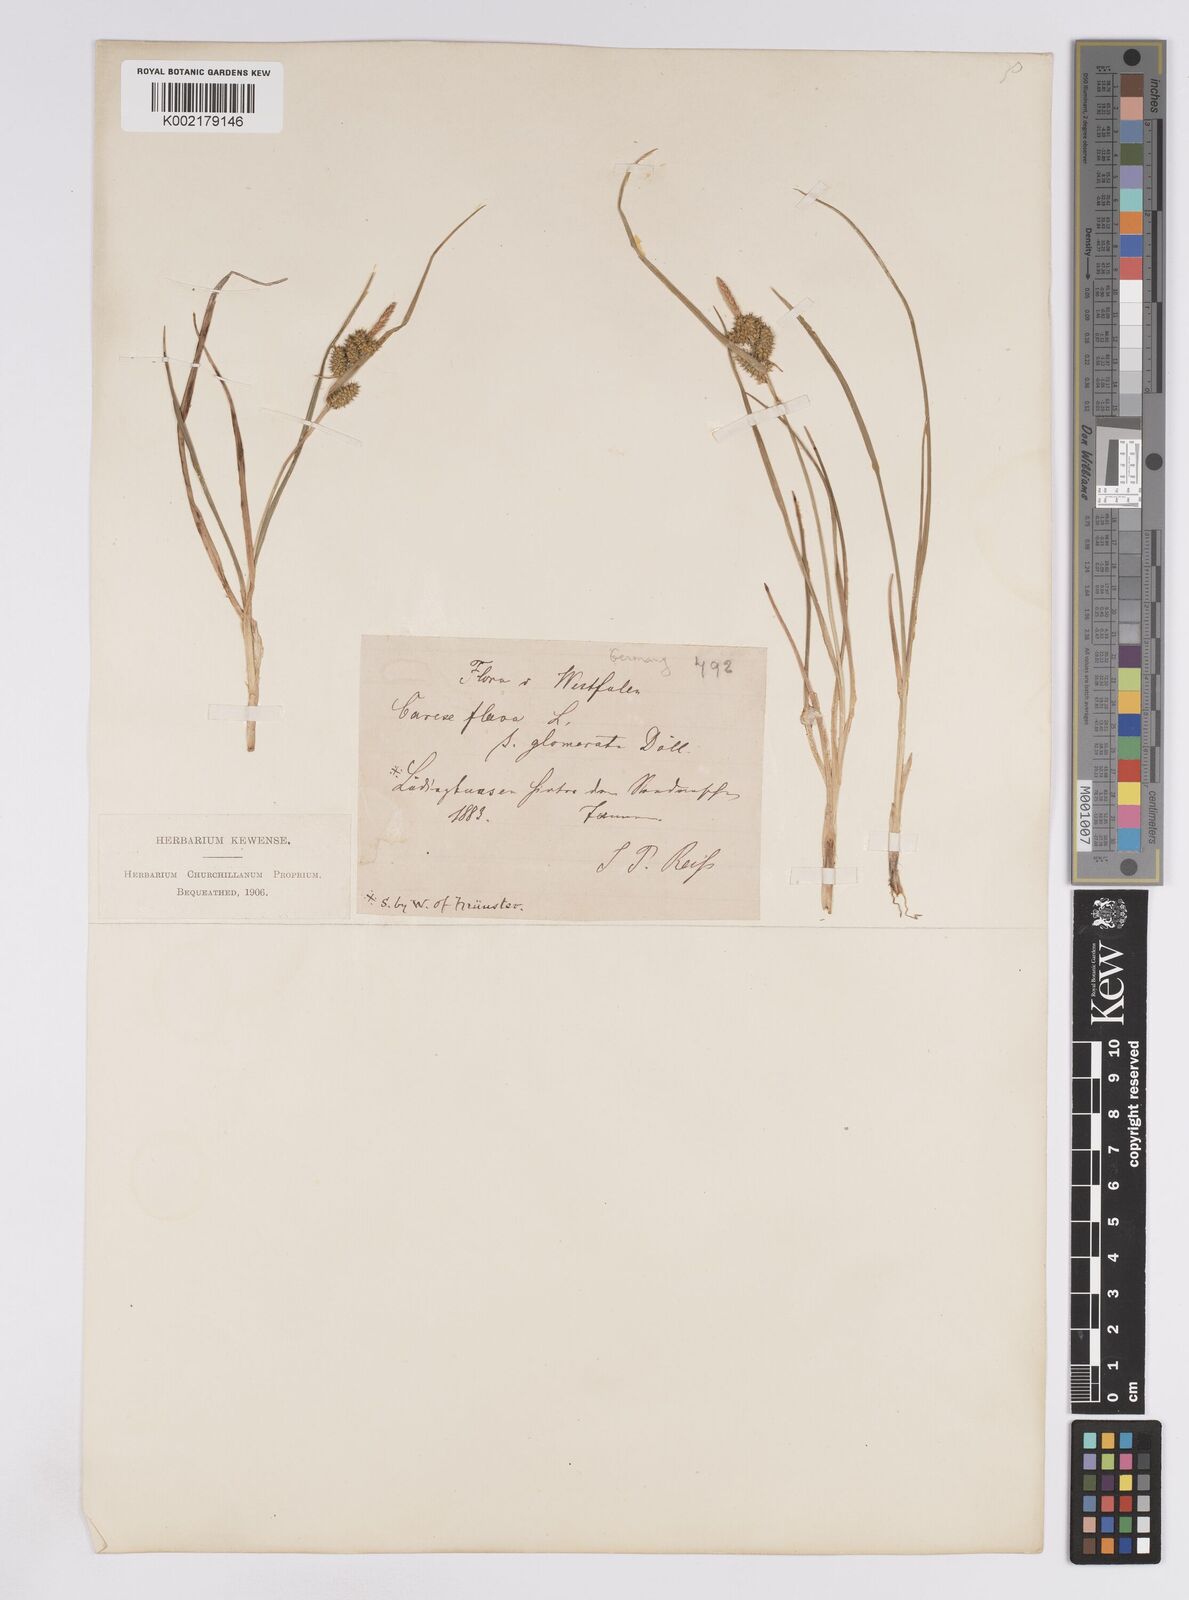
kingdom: Plantae
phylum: Tracheophyta
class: Liliopsida
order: Poales
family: Cyperaceae
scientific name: Cyperaceae
